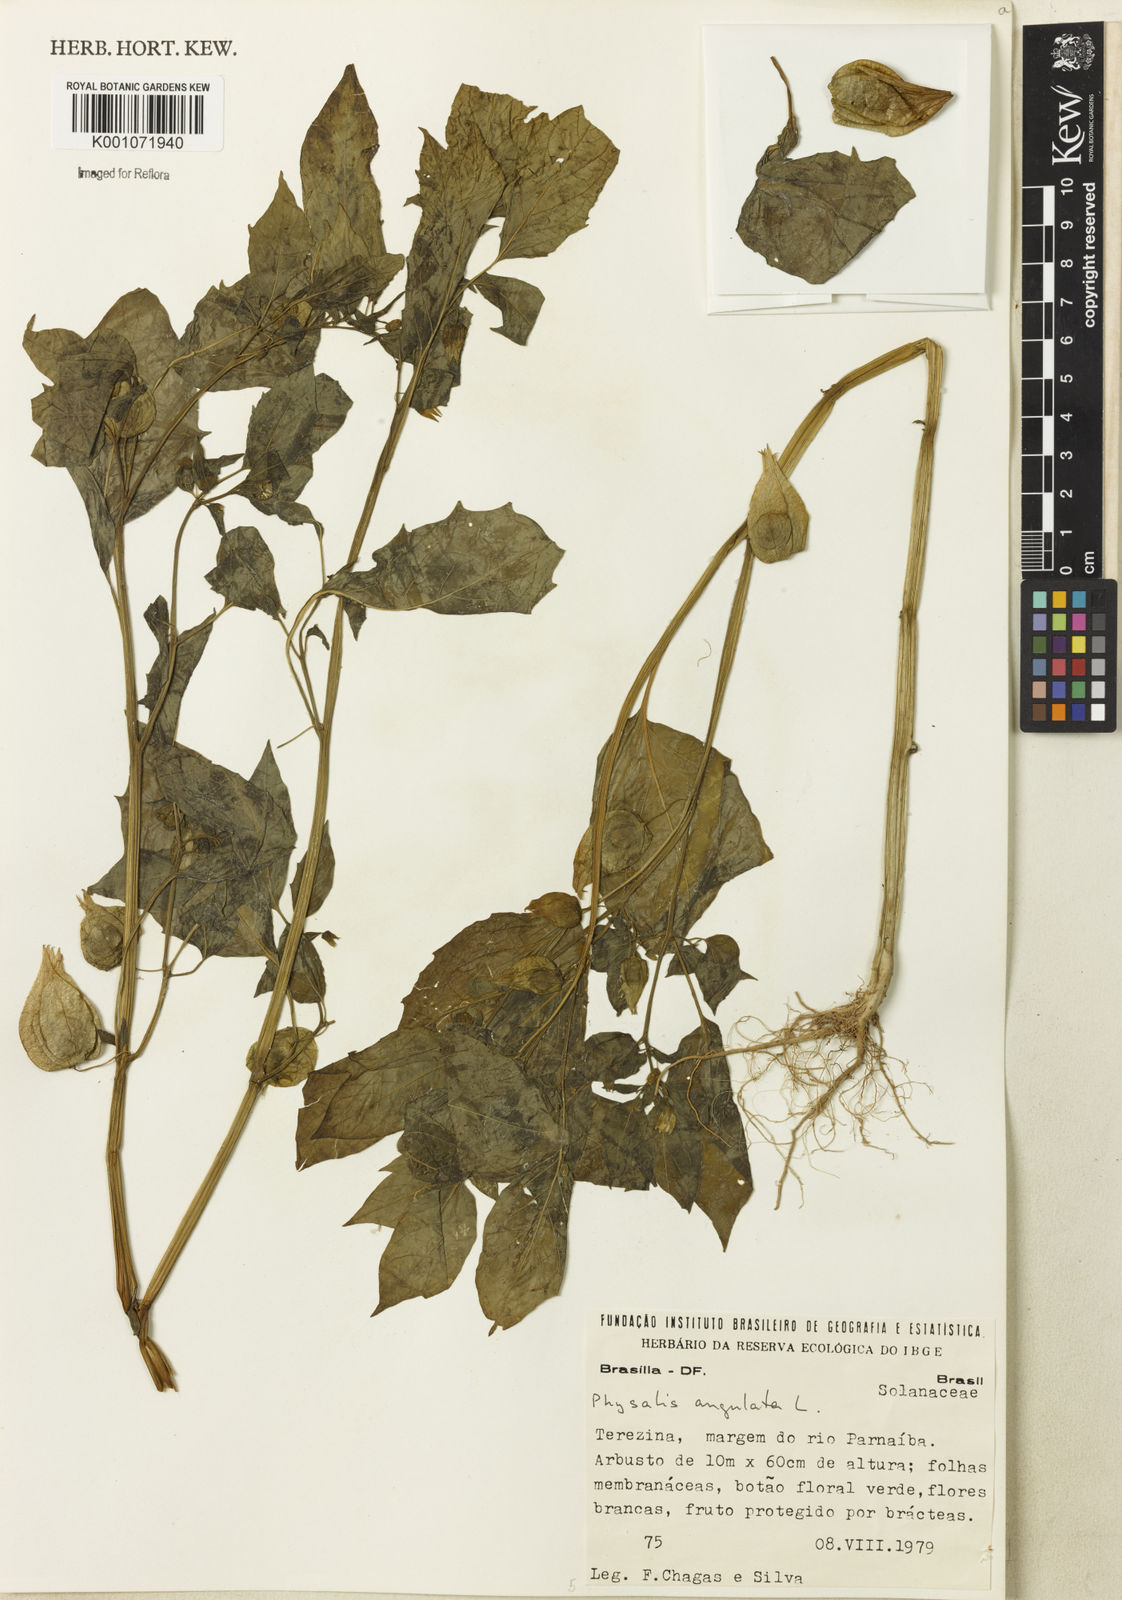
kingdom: Plantae
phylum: Tracheophyta
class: Magnoliopsida
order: Solanales
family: Solanaceae
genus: Physalis
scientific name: Physalis angulata
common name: Angular winter-cherry
